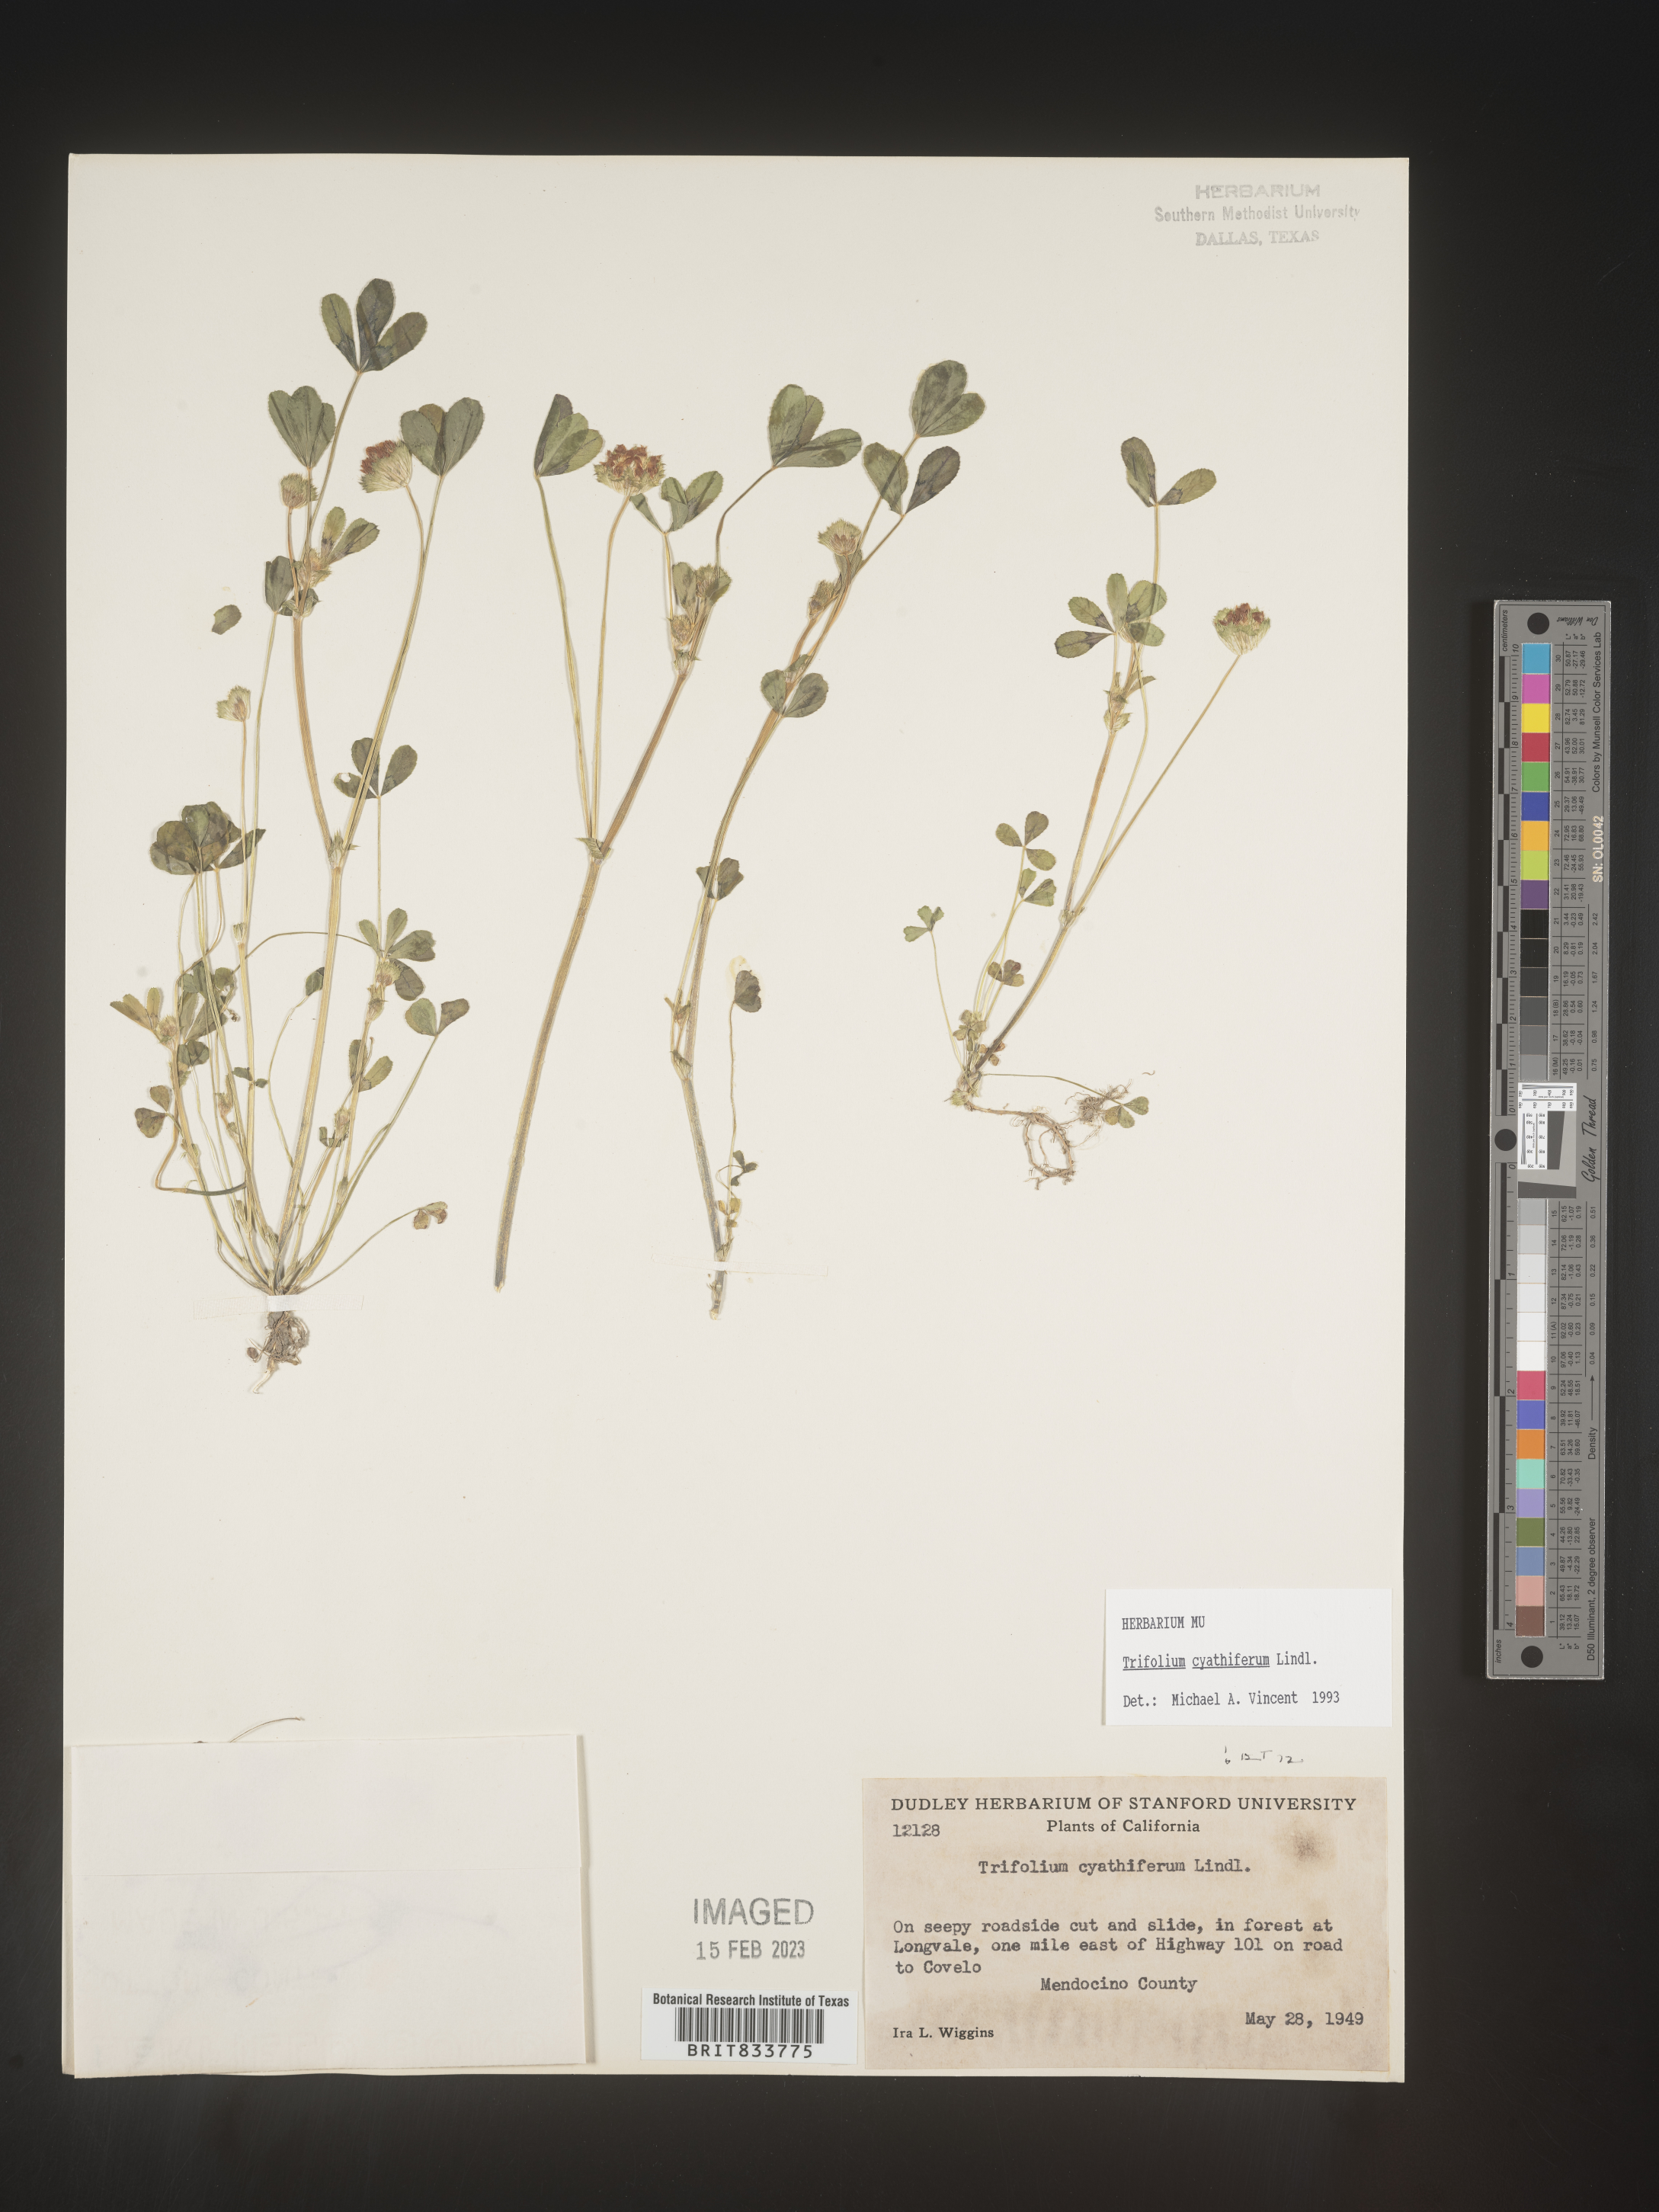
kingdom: Plantae
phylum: Tracheophyta
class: Magnoliopsida
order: Fabales
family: Fabaceae
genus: Trifolium
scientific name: Trifolium
